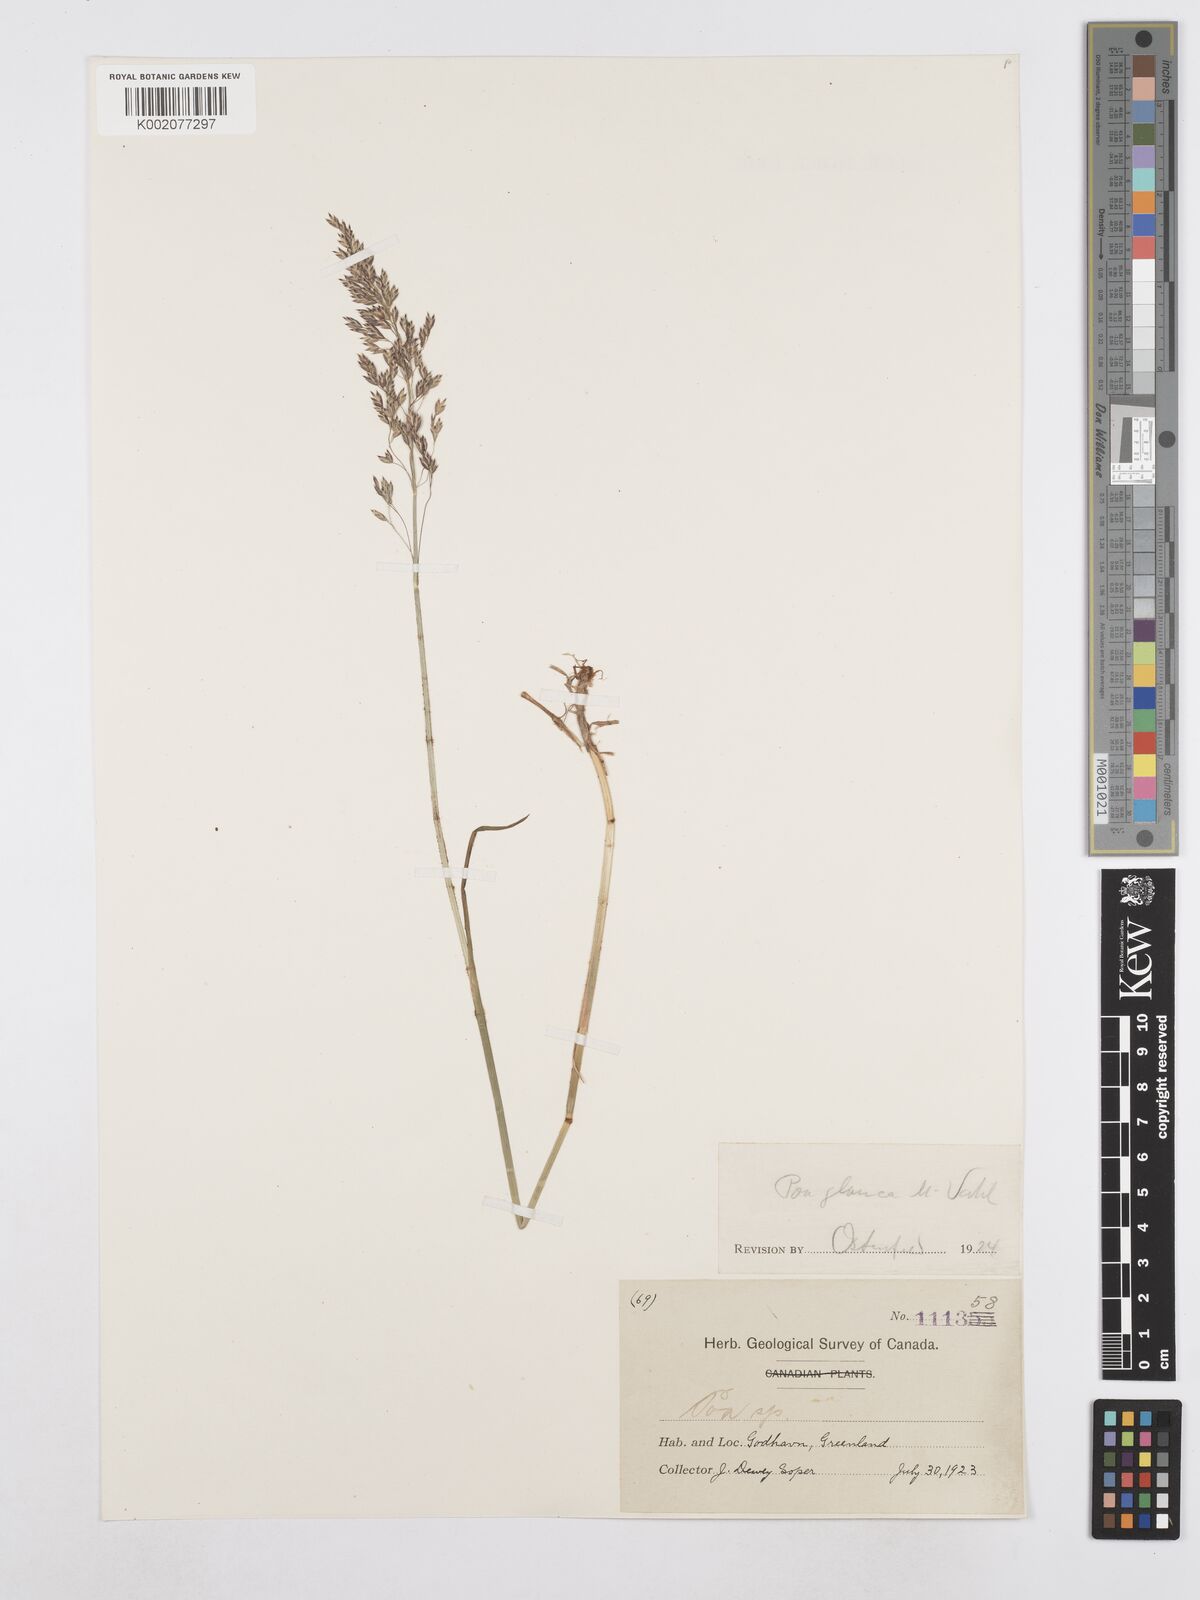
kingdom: Plantae
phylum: Tracheophyta
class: Liliopsida
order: Poales
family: Poaceae
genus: Poa
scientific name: Poa glauca
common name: Glaucous bluegrass
